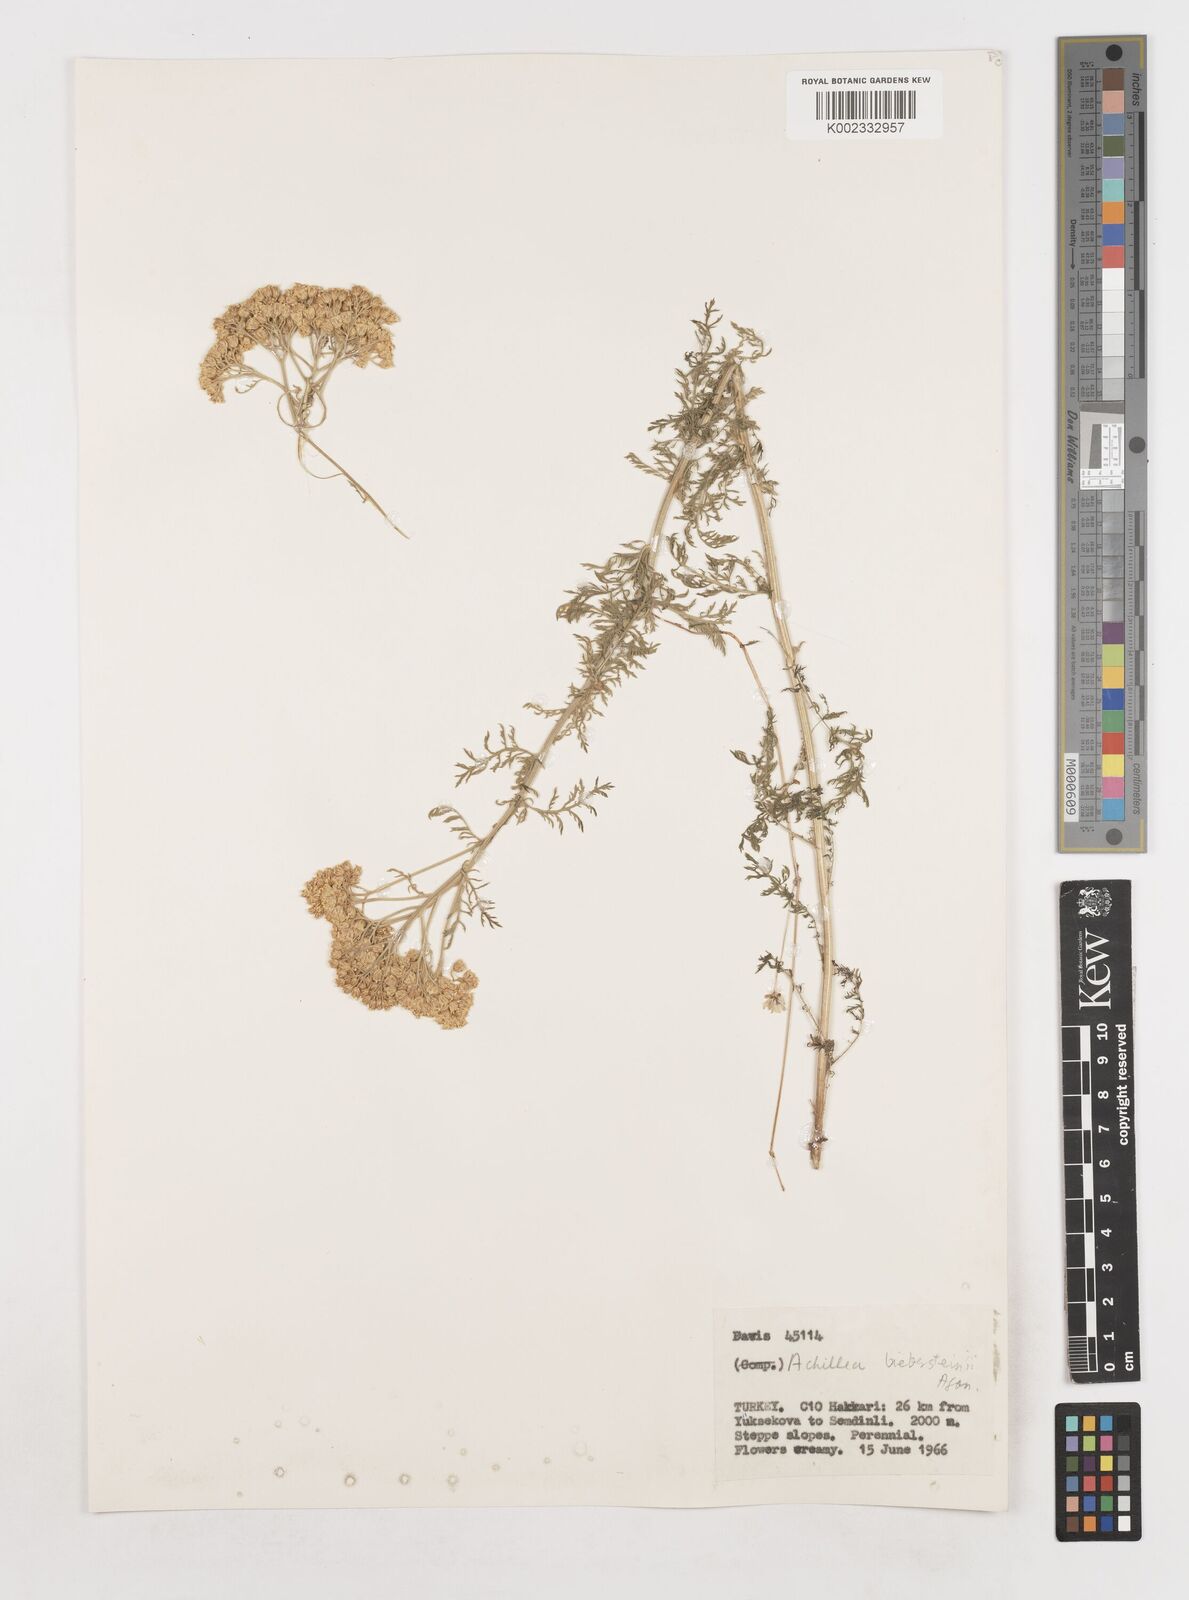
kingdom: Plantae
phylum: Tracheophyta
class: Magnoliopsida
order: Asterales
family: Asteraceae
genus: Achillea
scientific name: Achillea arabica
